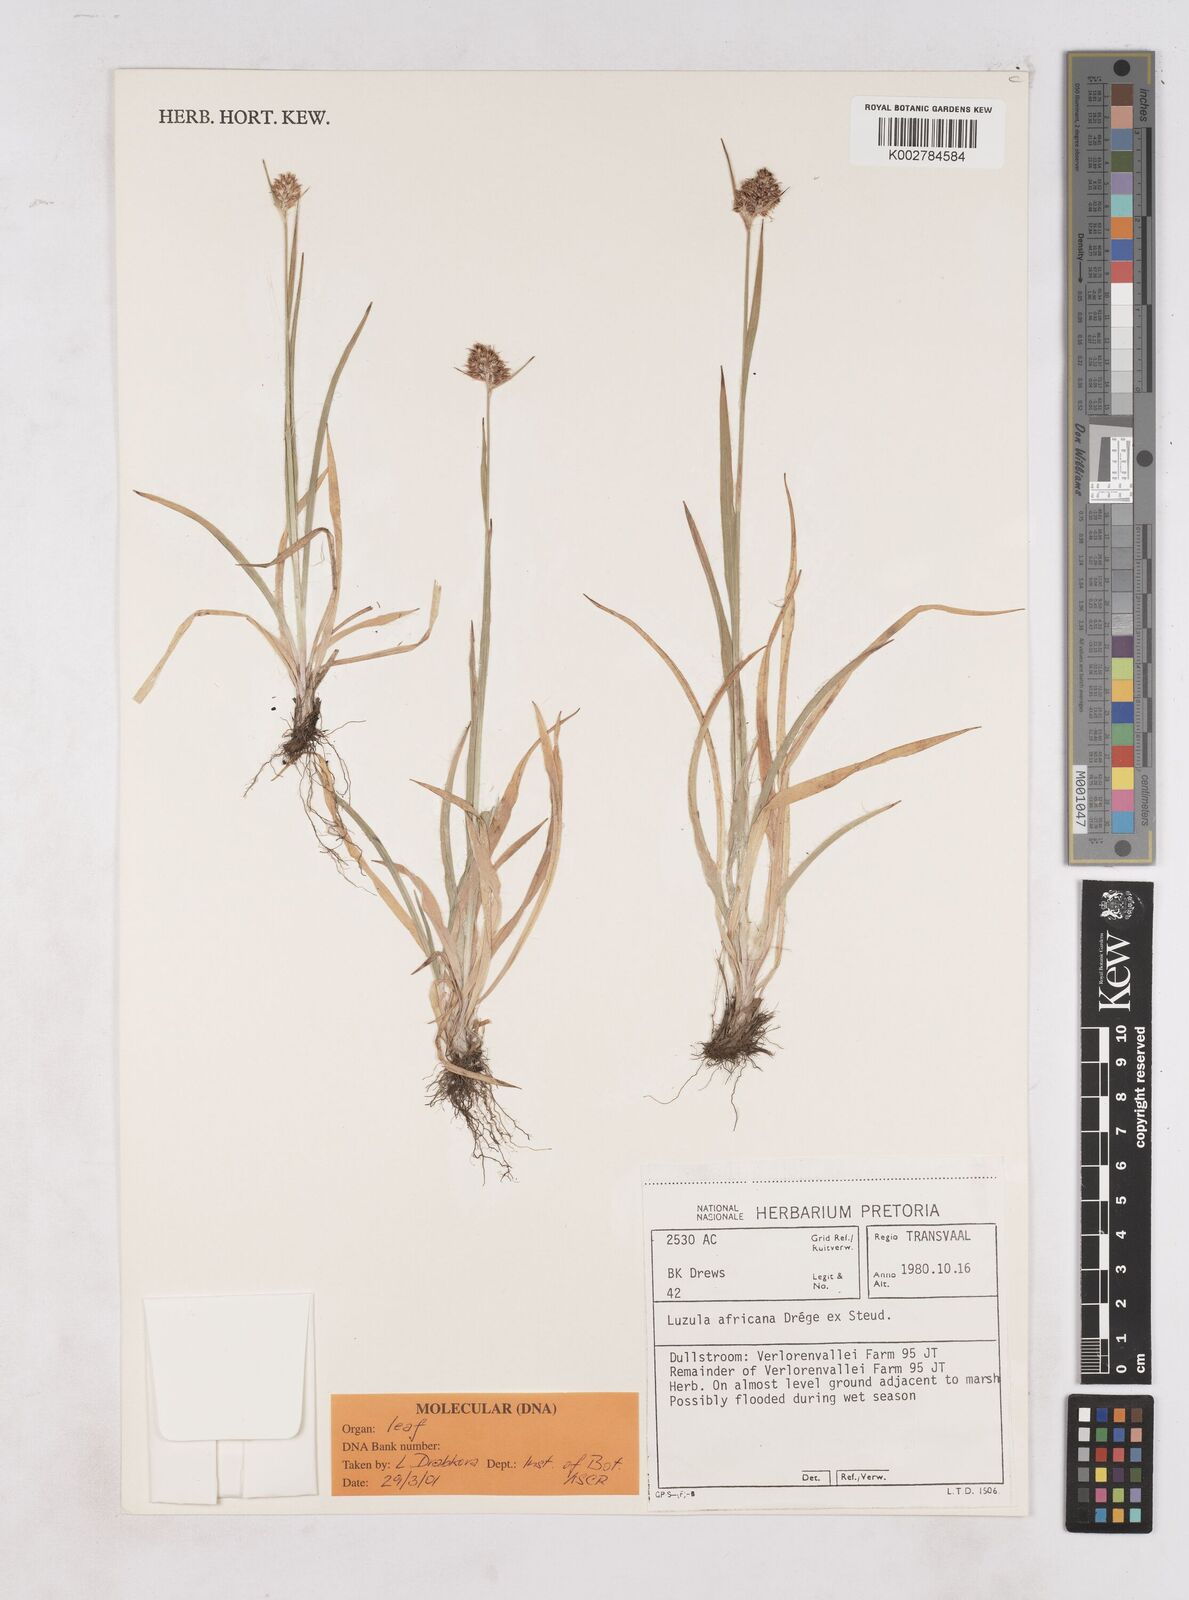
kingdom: Plantae
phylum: Tracheophyta
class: Liliopsida
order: Poales
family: Juncaceae
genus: Luzula
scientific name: Luzula africana
